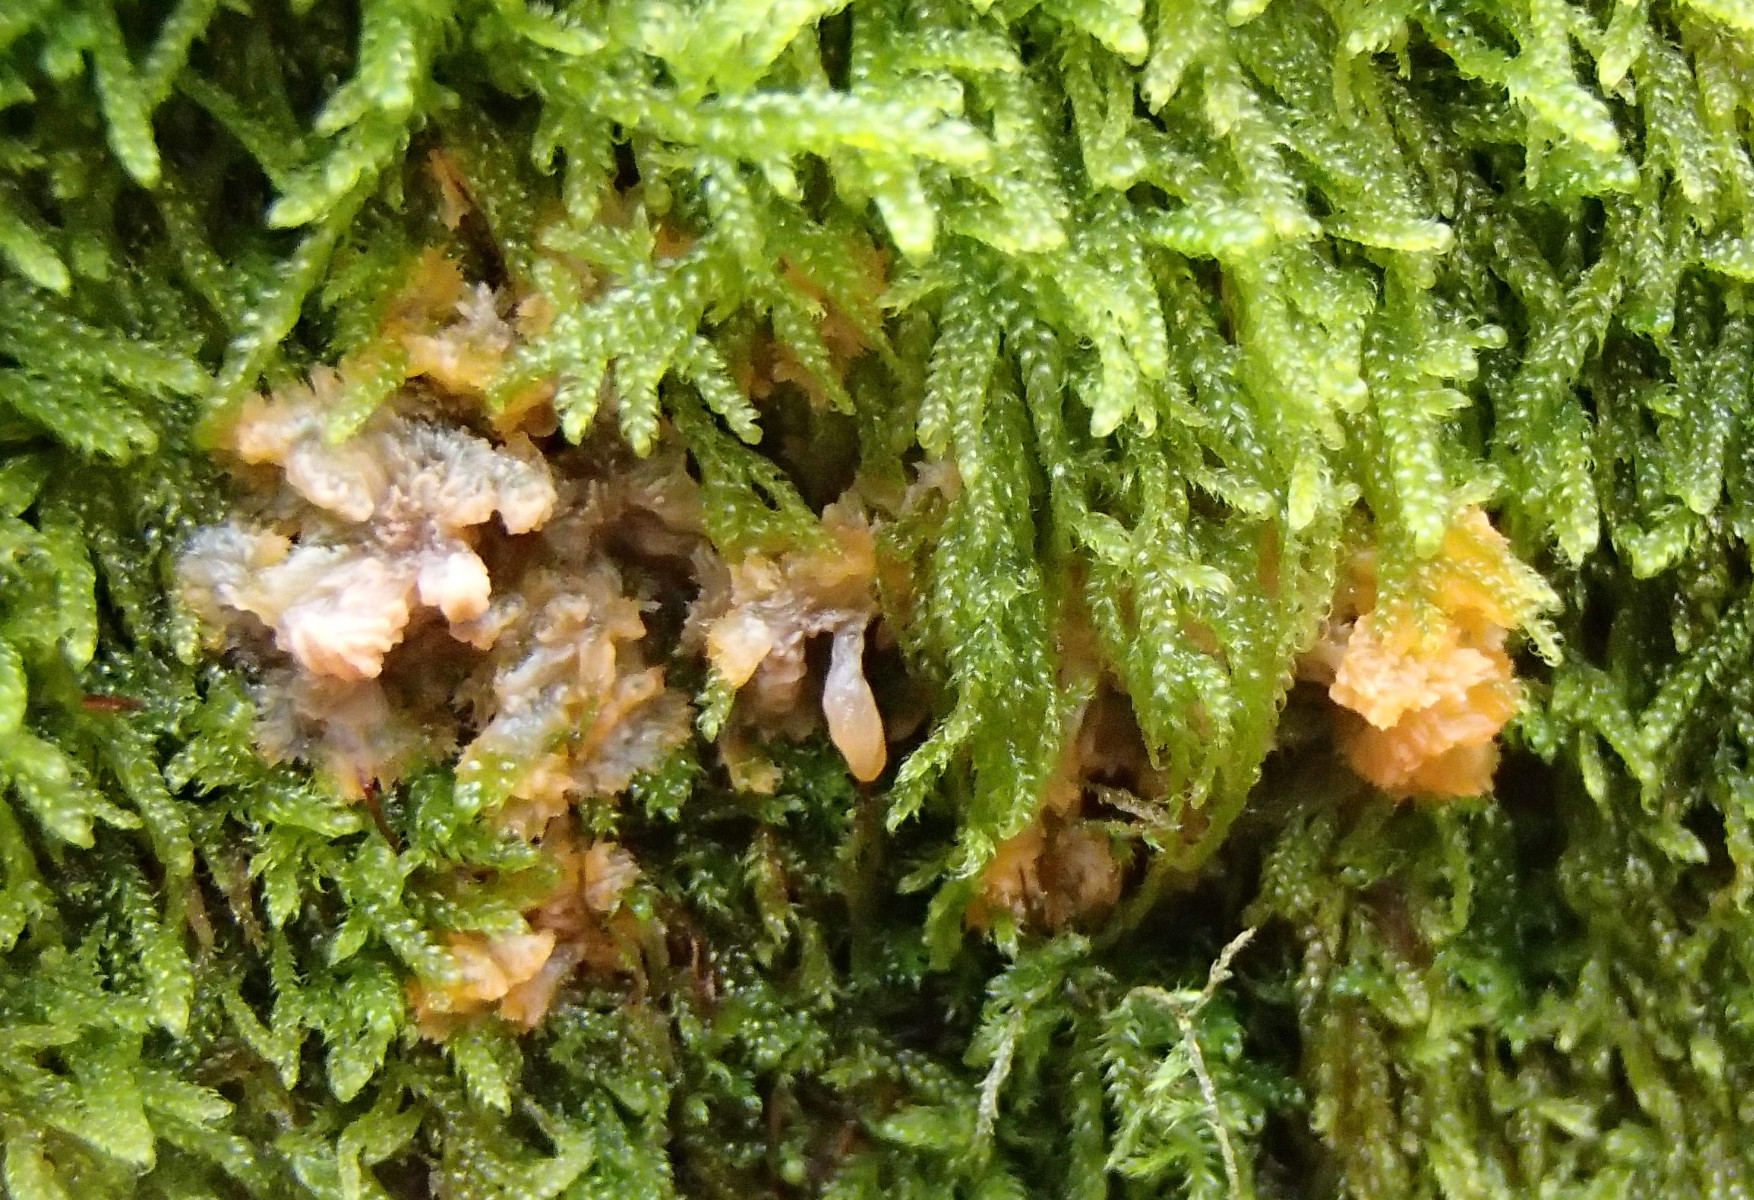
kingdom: Fungi
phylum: Basidiomycota
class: Agaricomycetes
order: Polyporales
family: Meruliaceae
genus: Phlebia
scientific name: Phlebia radiata
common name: stråle-åresvamp
